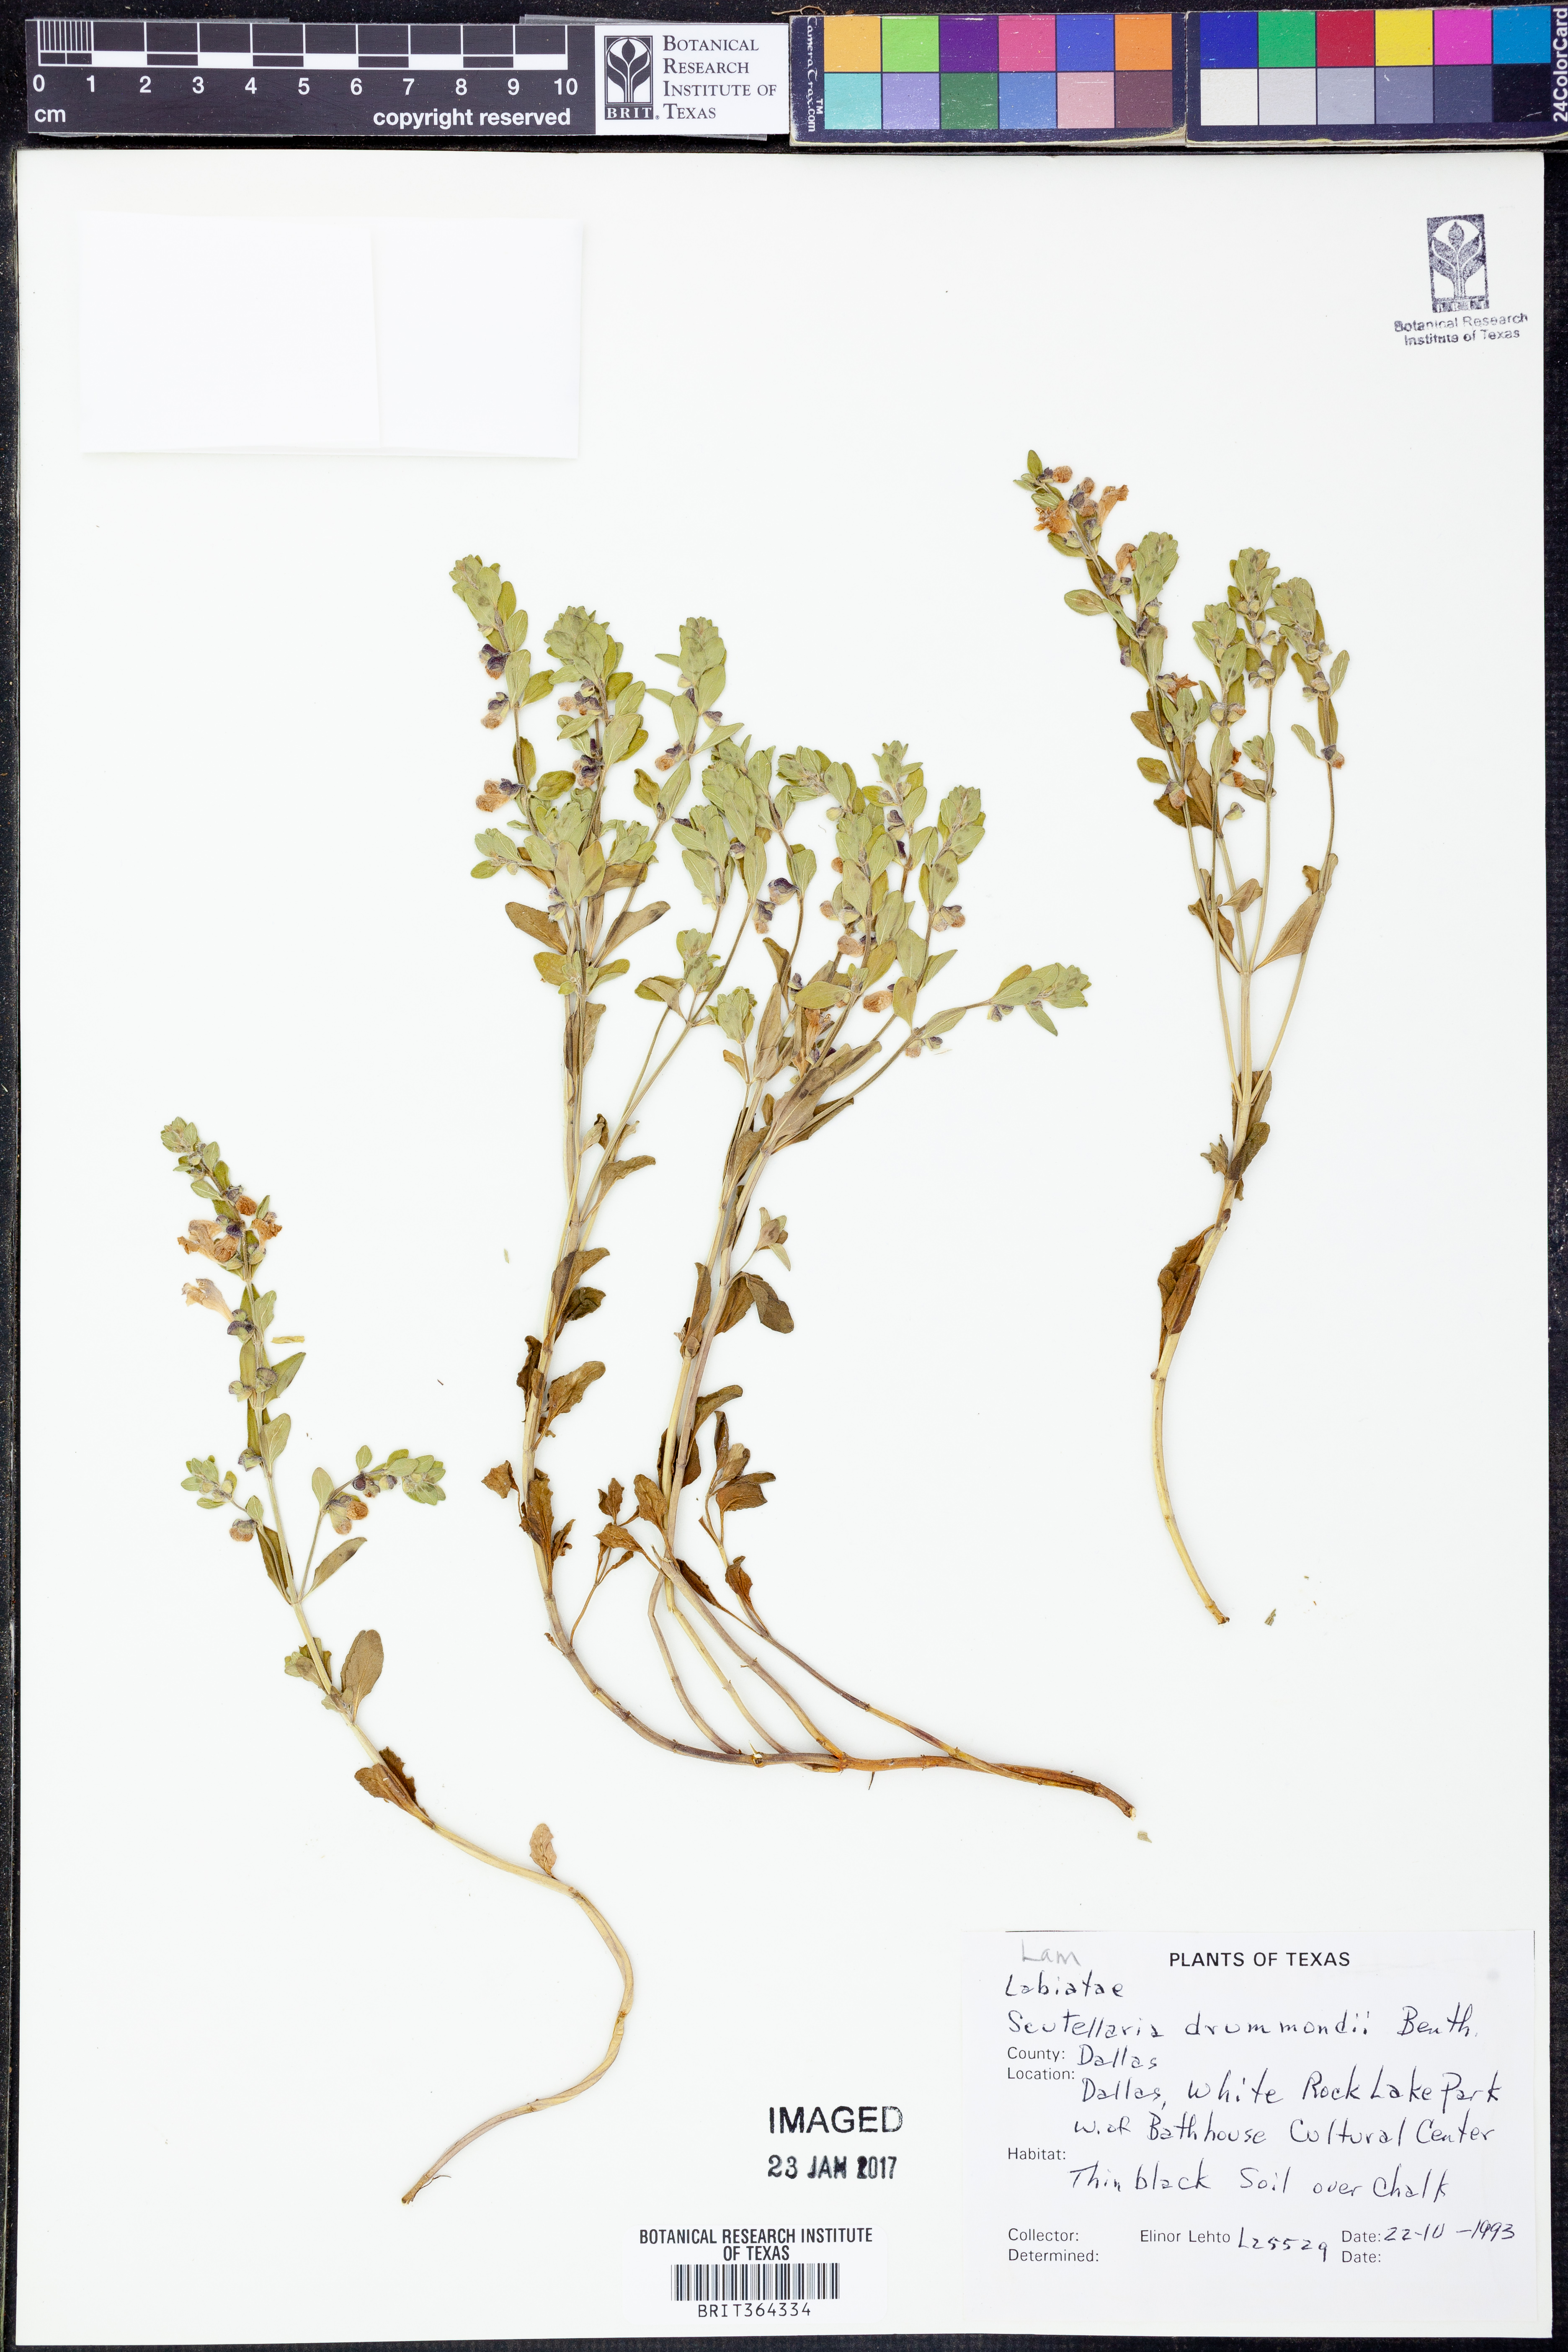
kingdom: Plantae
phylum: Tracheophyta
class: Magnoliopsida
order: Lamiales
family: Lamiaceae
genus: Scutellaria
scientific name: Scutellaria drummondii
